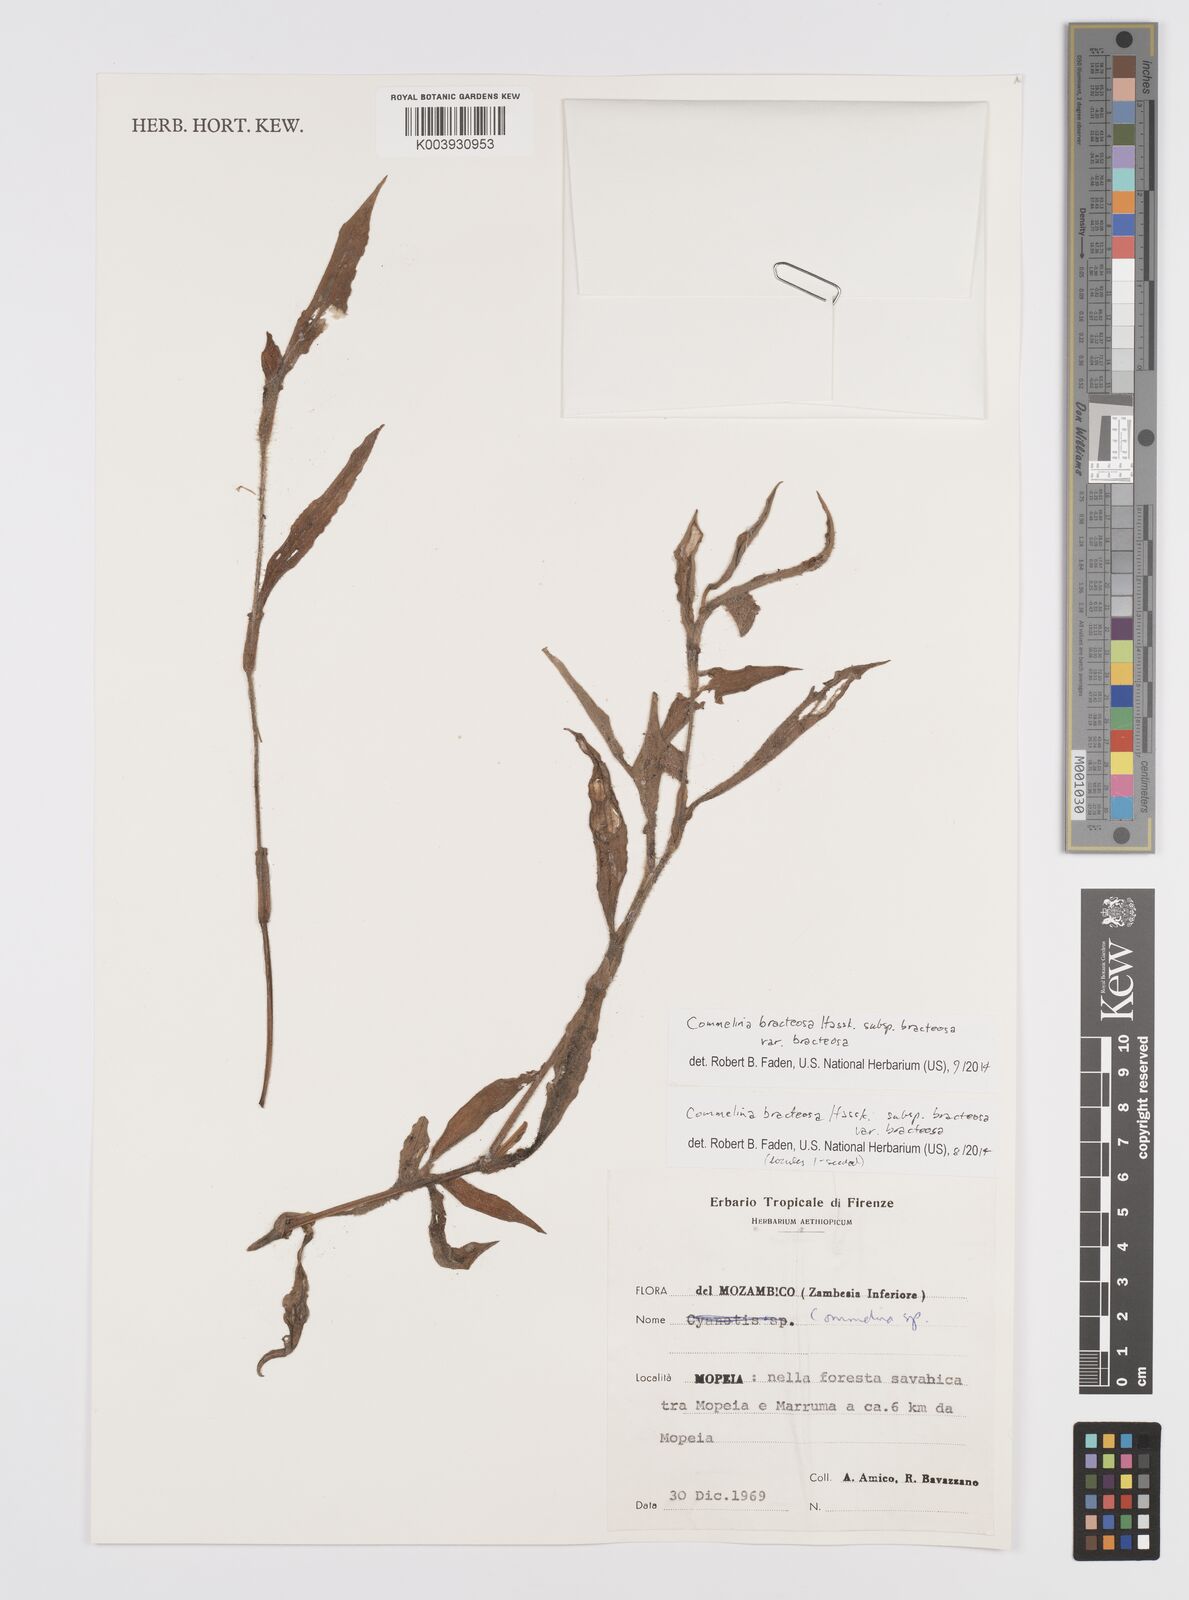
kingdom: Plantae
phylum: Tracheophyta
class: Liliopsida
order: Commelinales
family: Commelinaceae
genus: Commelina
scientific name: Commelina bracteosa
